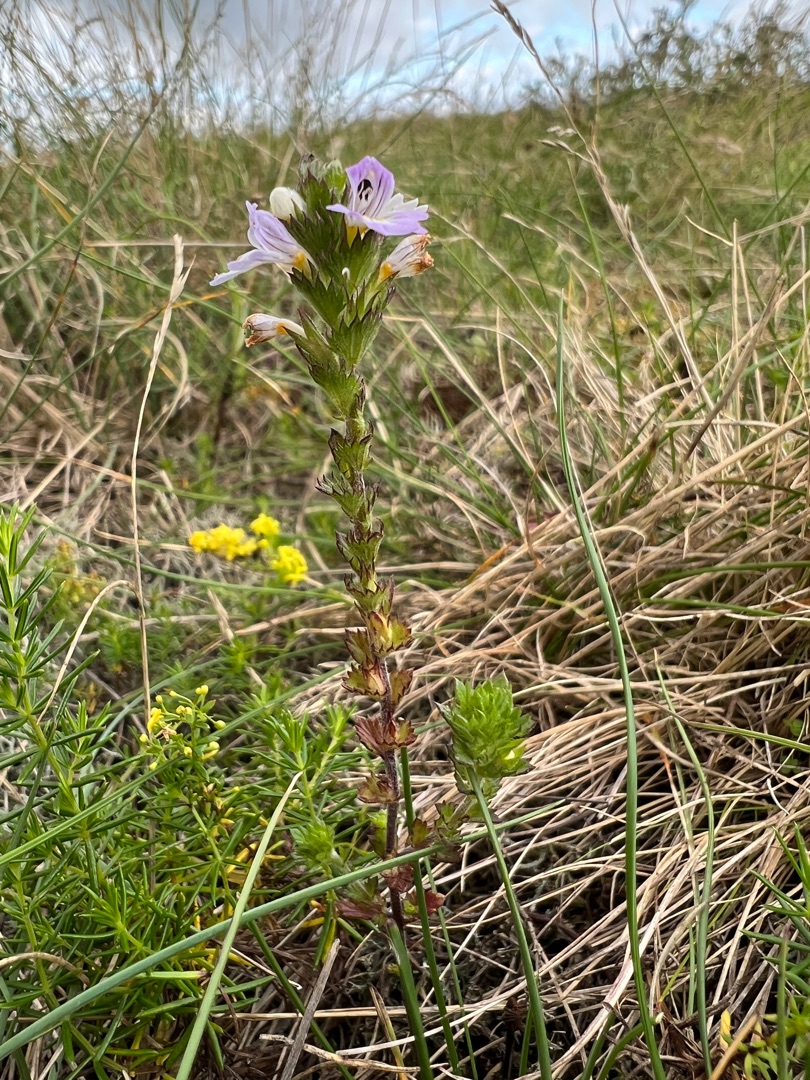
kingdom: Plantae
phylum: Tracheophyta
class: Magnoliopsida
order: Lamiales
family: Orobanchaceae
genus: Euphrasia
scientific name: Euphrasia stricta
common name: Spids øjentrøst
